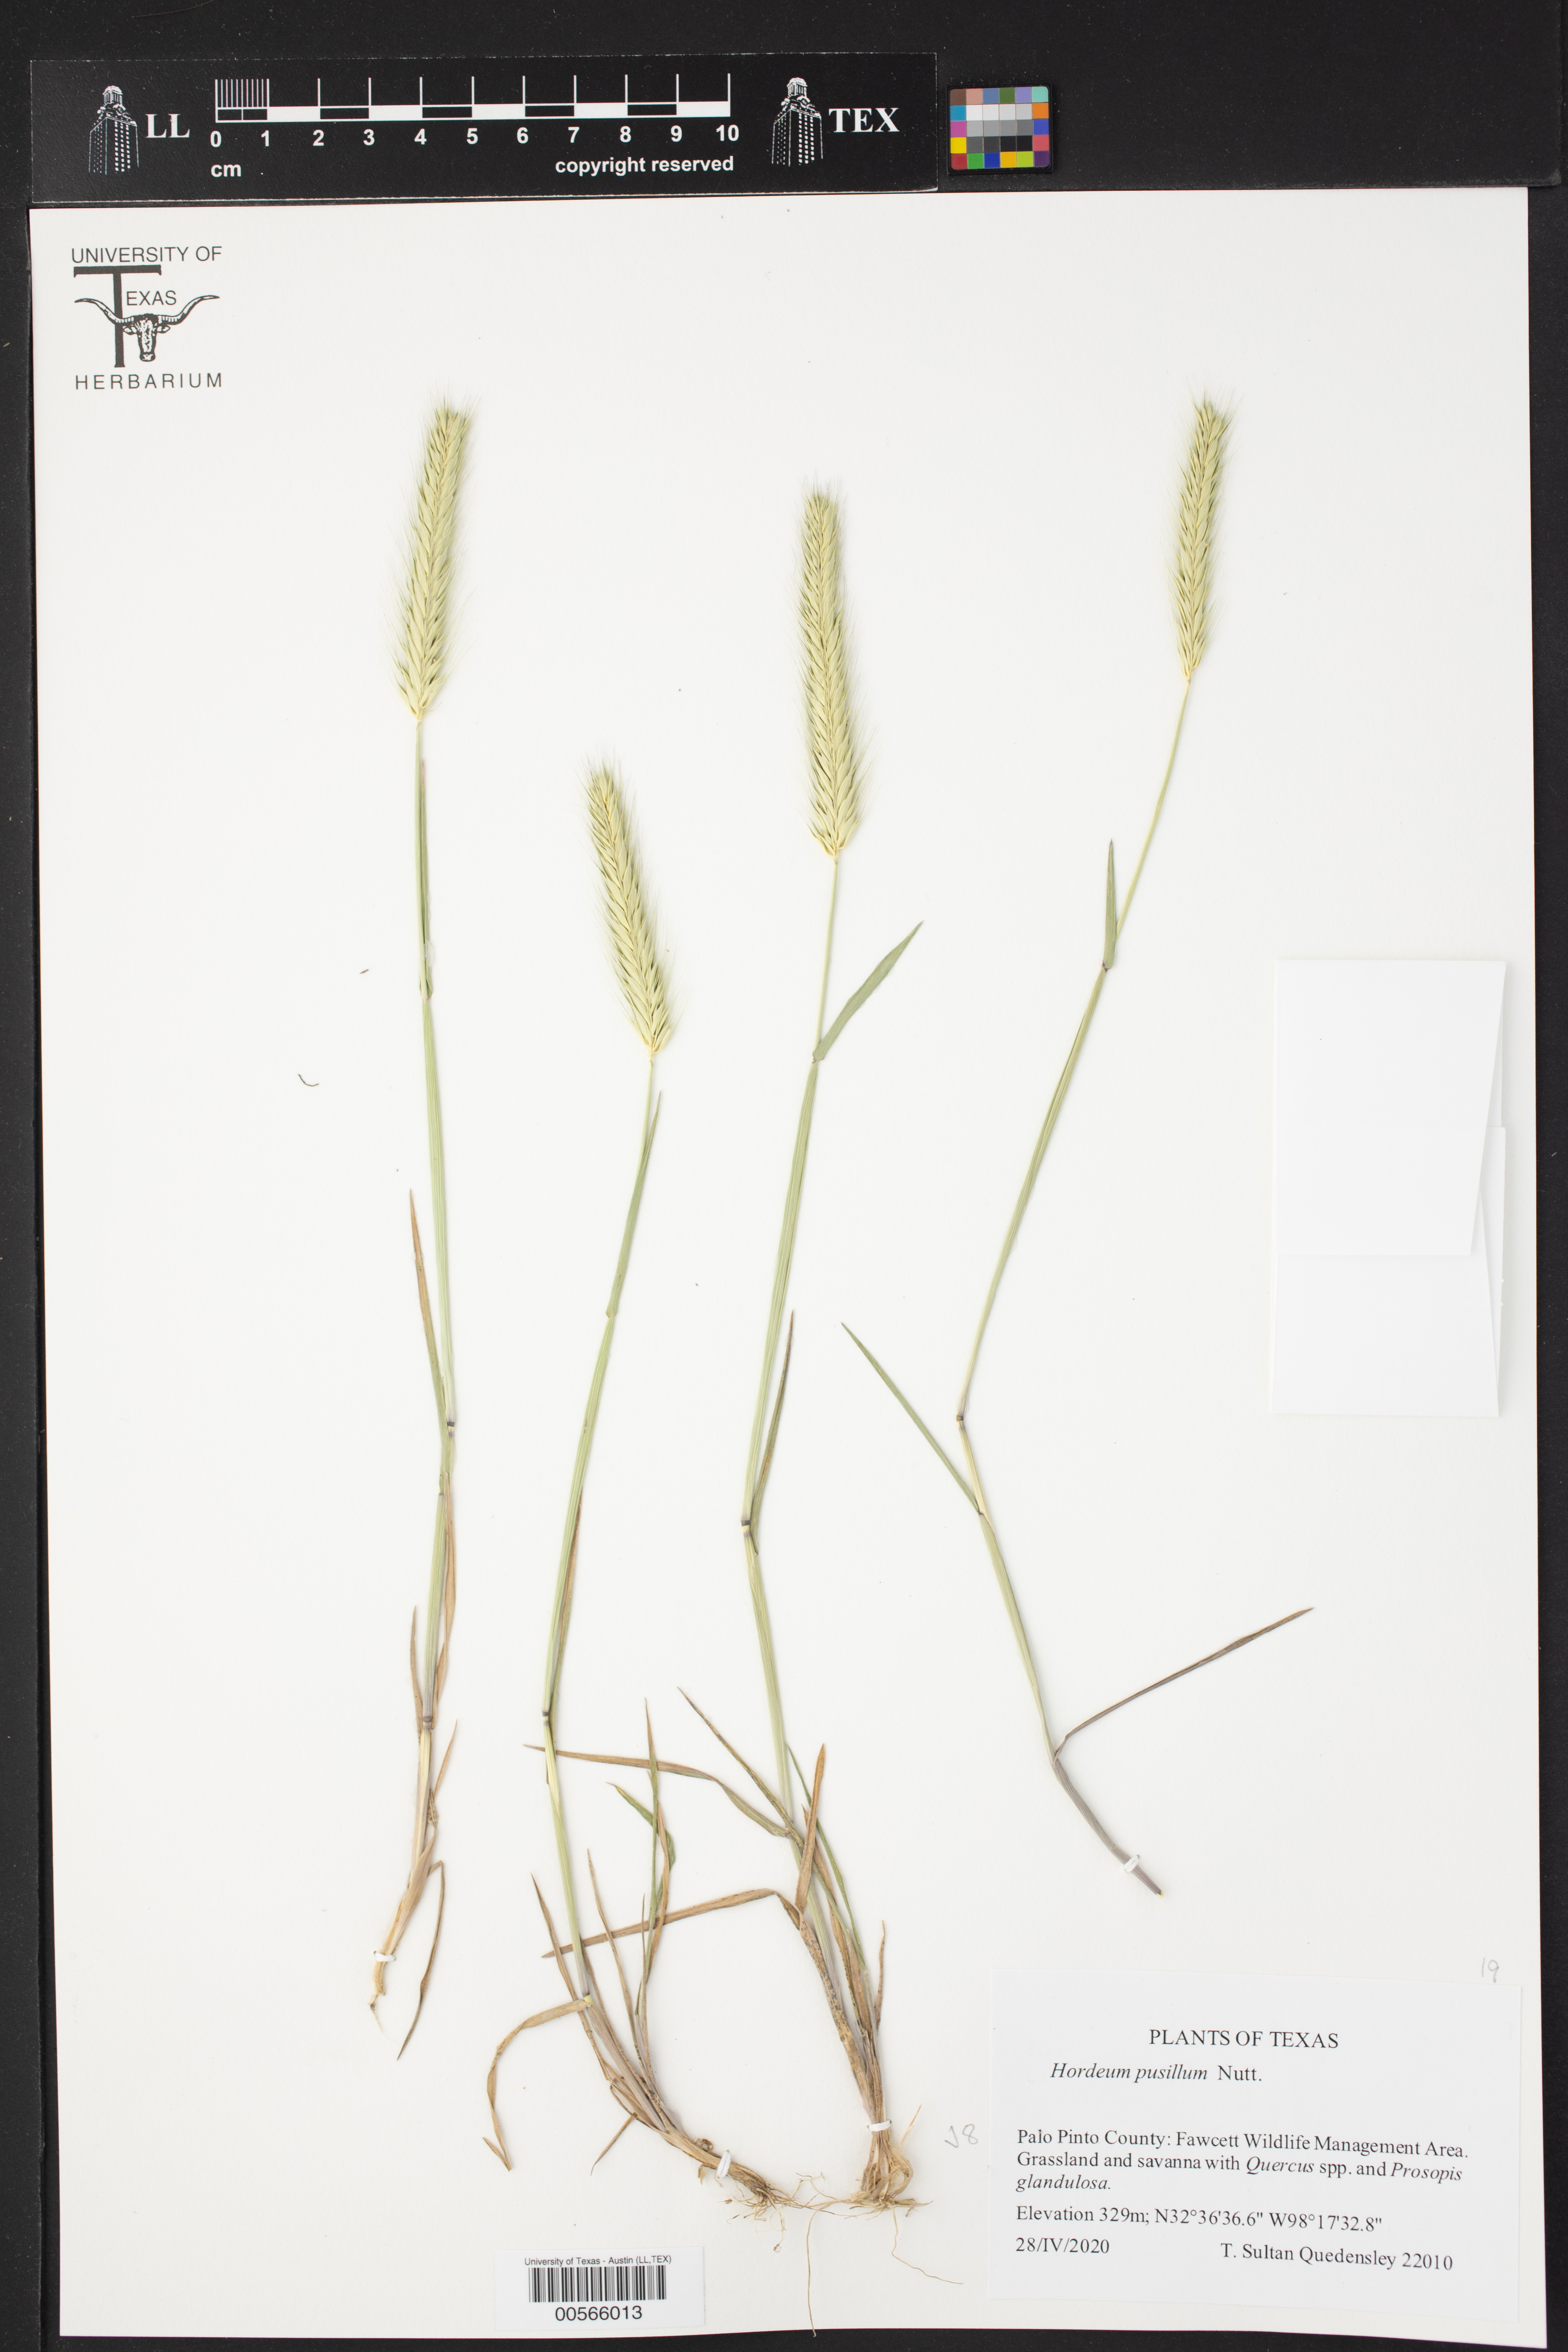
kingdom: Plantae
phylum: Tracheophyta
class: Liliopsida
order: Poales
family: Poaceae
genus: Hordeum
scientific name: Hordeum pusillum
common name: Little barley
